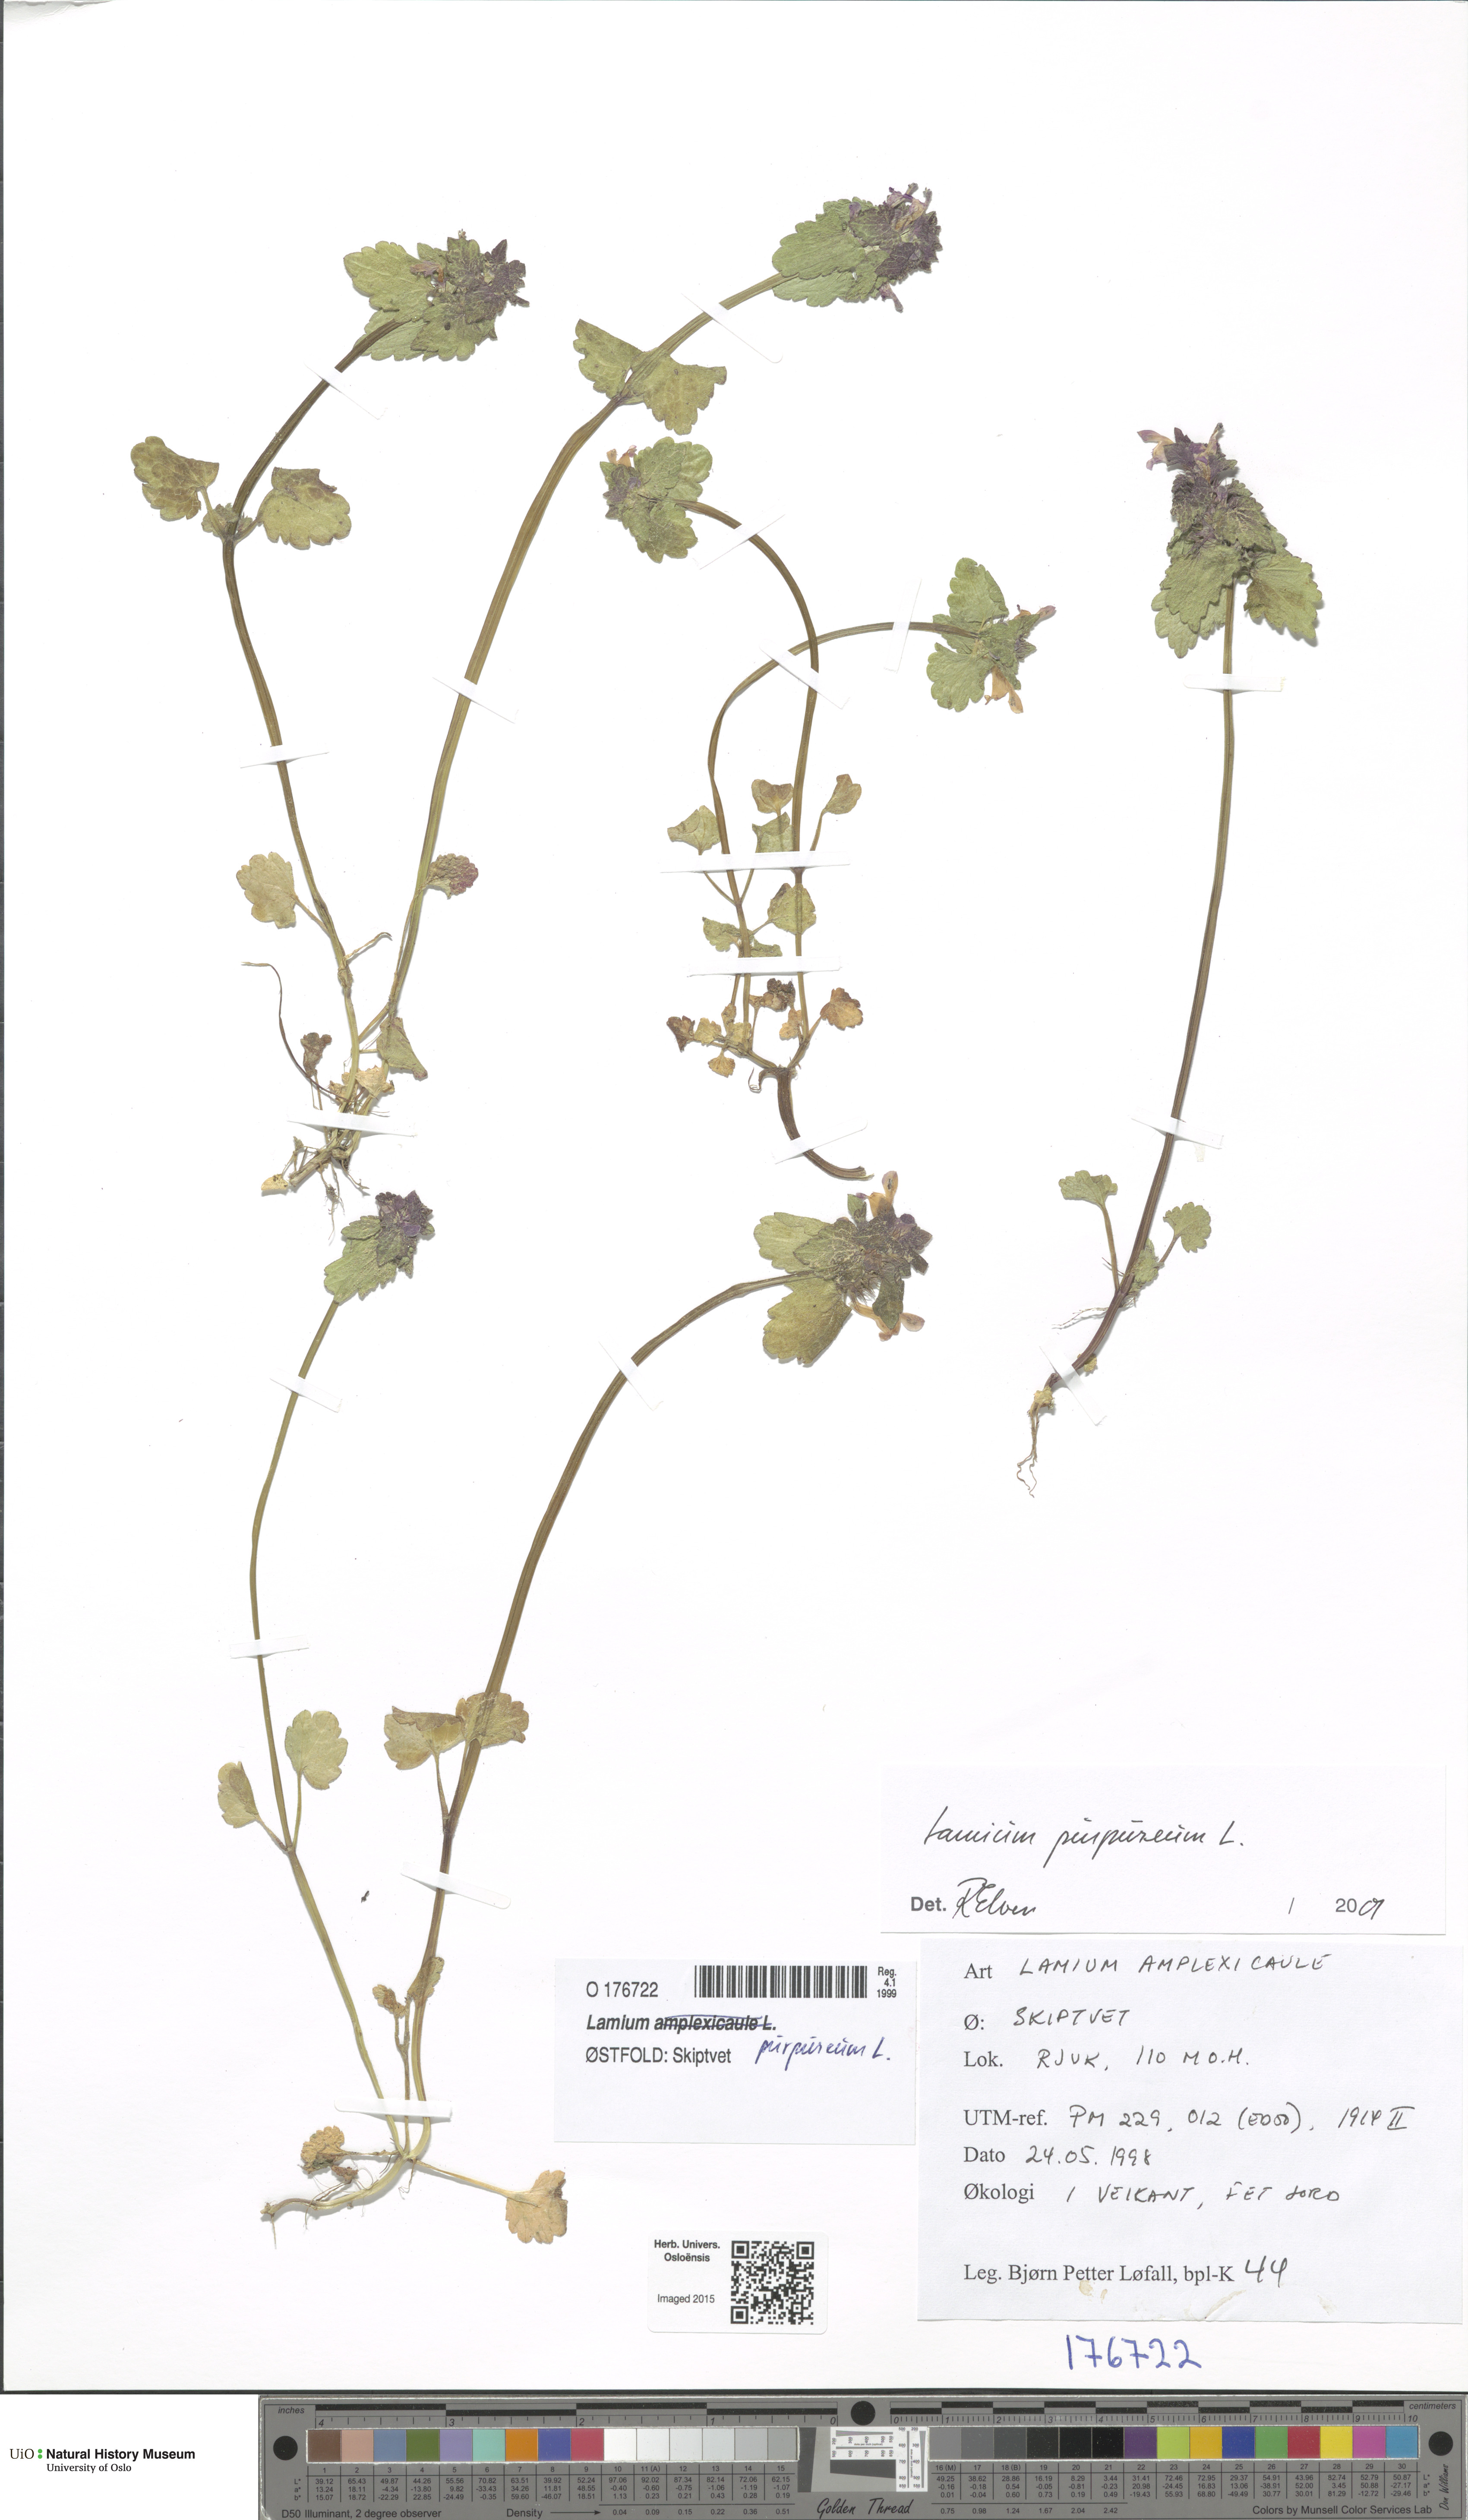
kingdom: Plantae
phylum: Tracheophyta
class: Magnoliopsida
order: Lamiales
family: Lamiaceae
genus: Lamium
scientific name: Lamium purpureum
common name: Red dead-nettle
